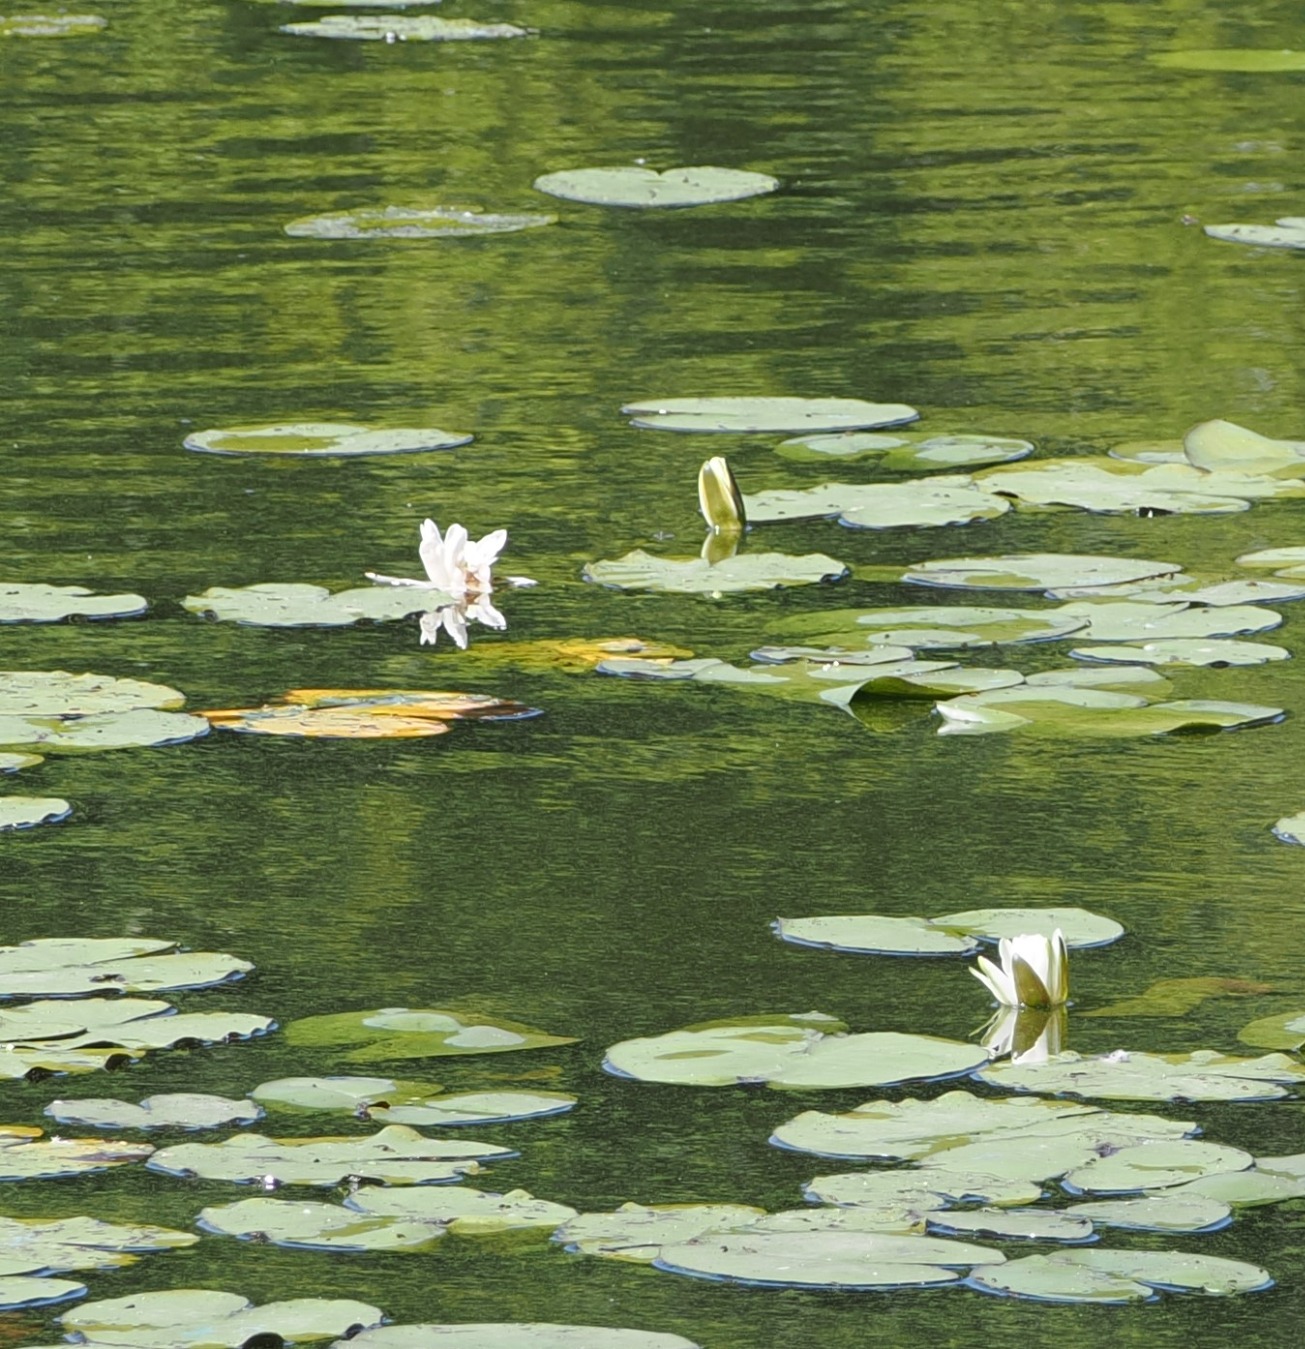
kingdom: Plantae
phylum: Tracheophyta
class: Magnoliopsida
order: Nymphaeales
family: Nymphaeaceae
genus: Nymphaea
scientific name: Nymphaea alba
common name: Hvid åkande
